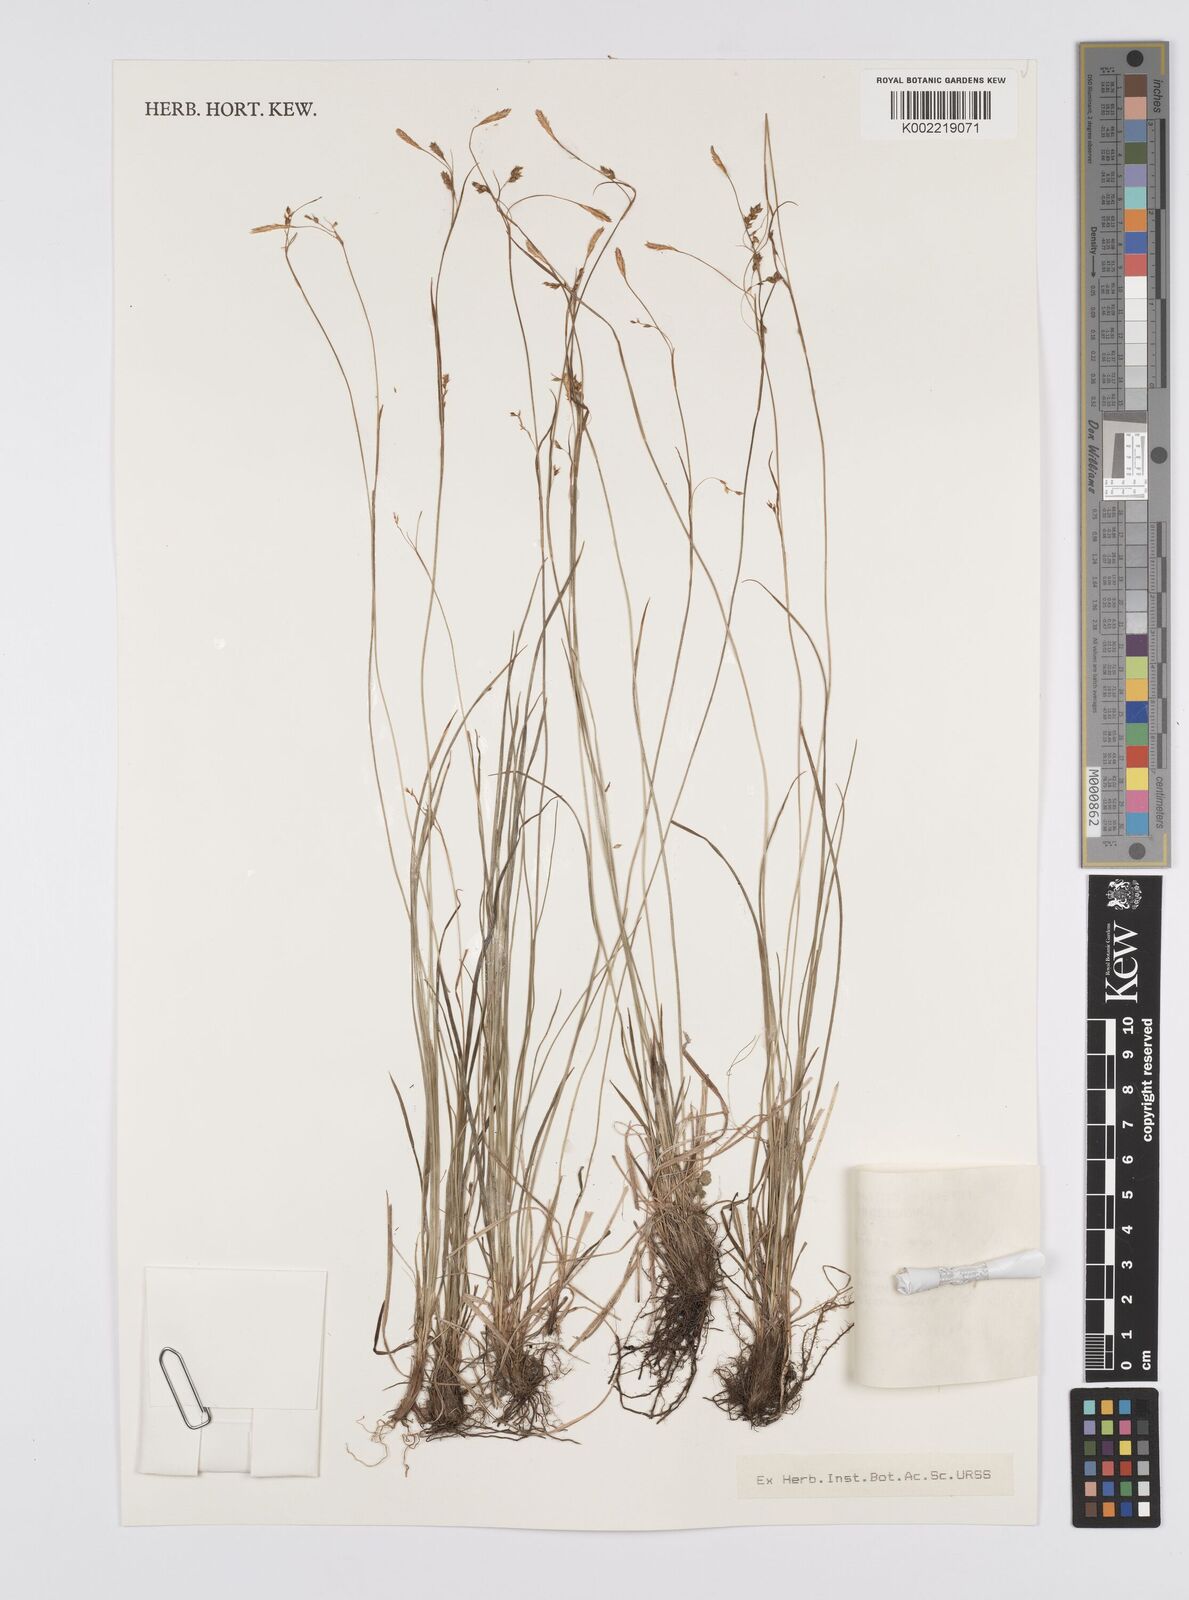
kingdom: Plantae
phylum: Tracheophyta
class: Liliopsida
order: Poales
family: Cyperaceae
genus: Carex
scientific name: Carex ledebouriana
